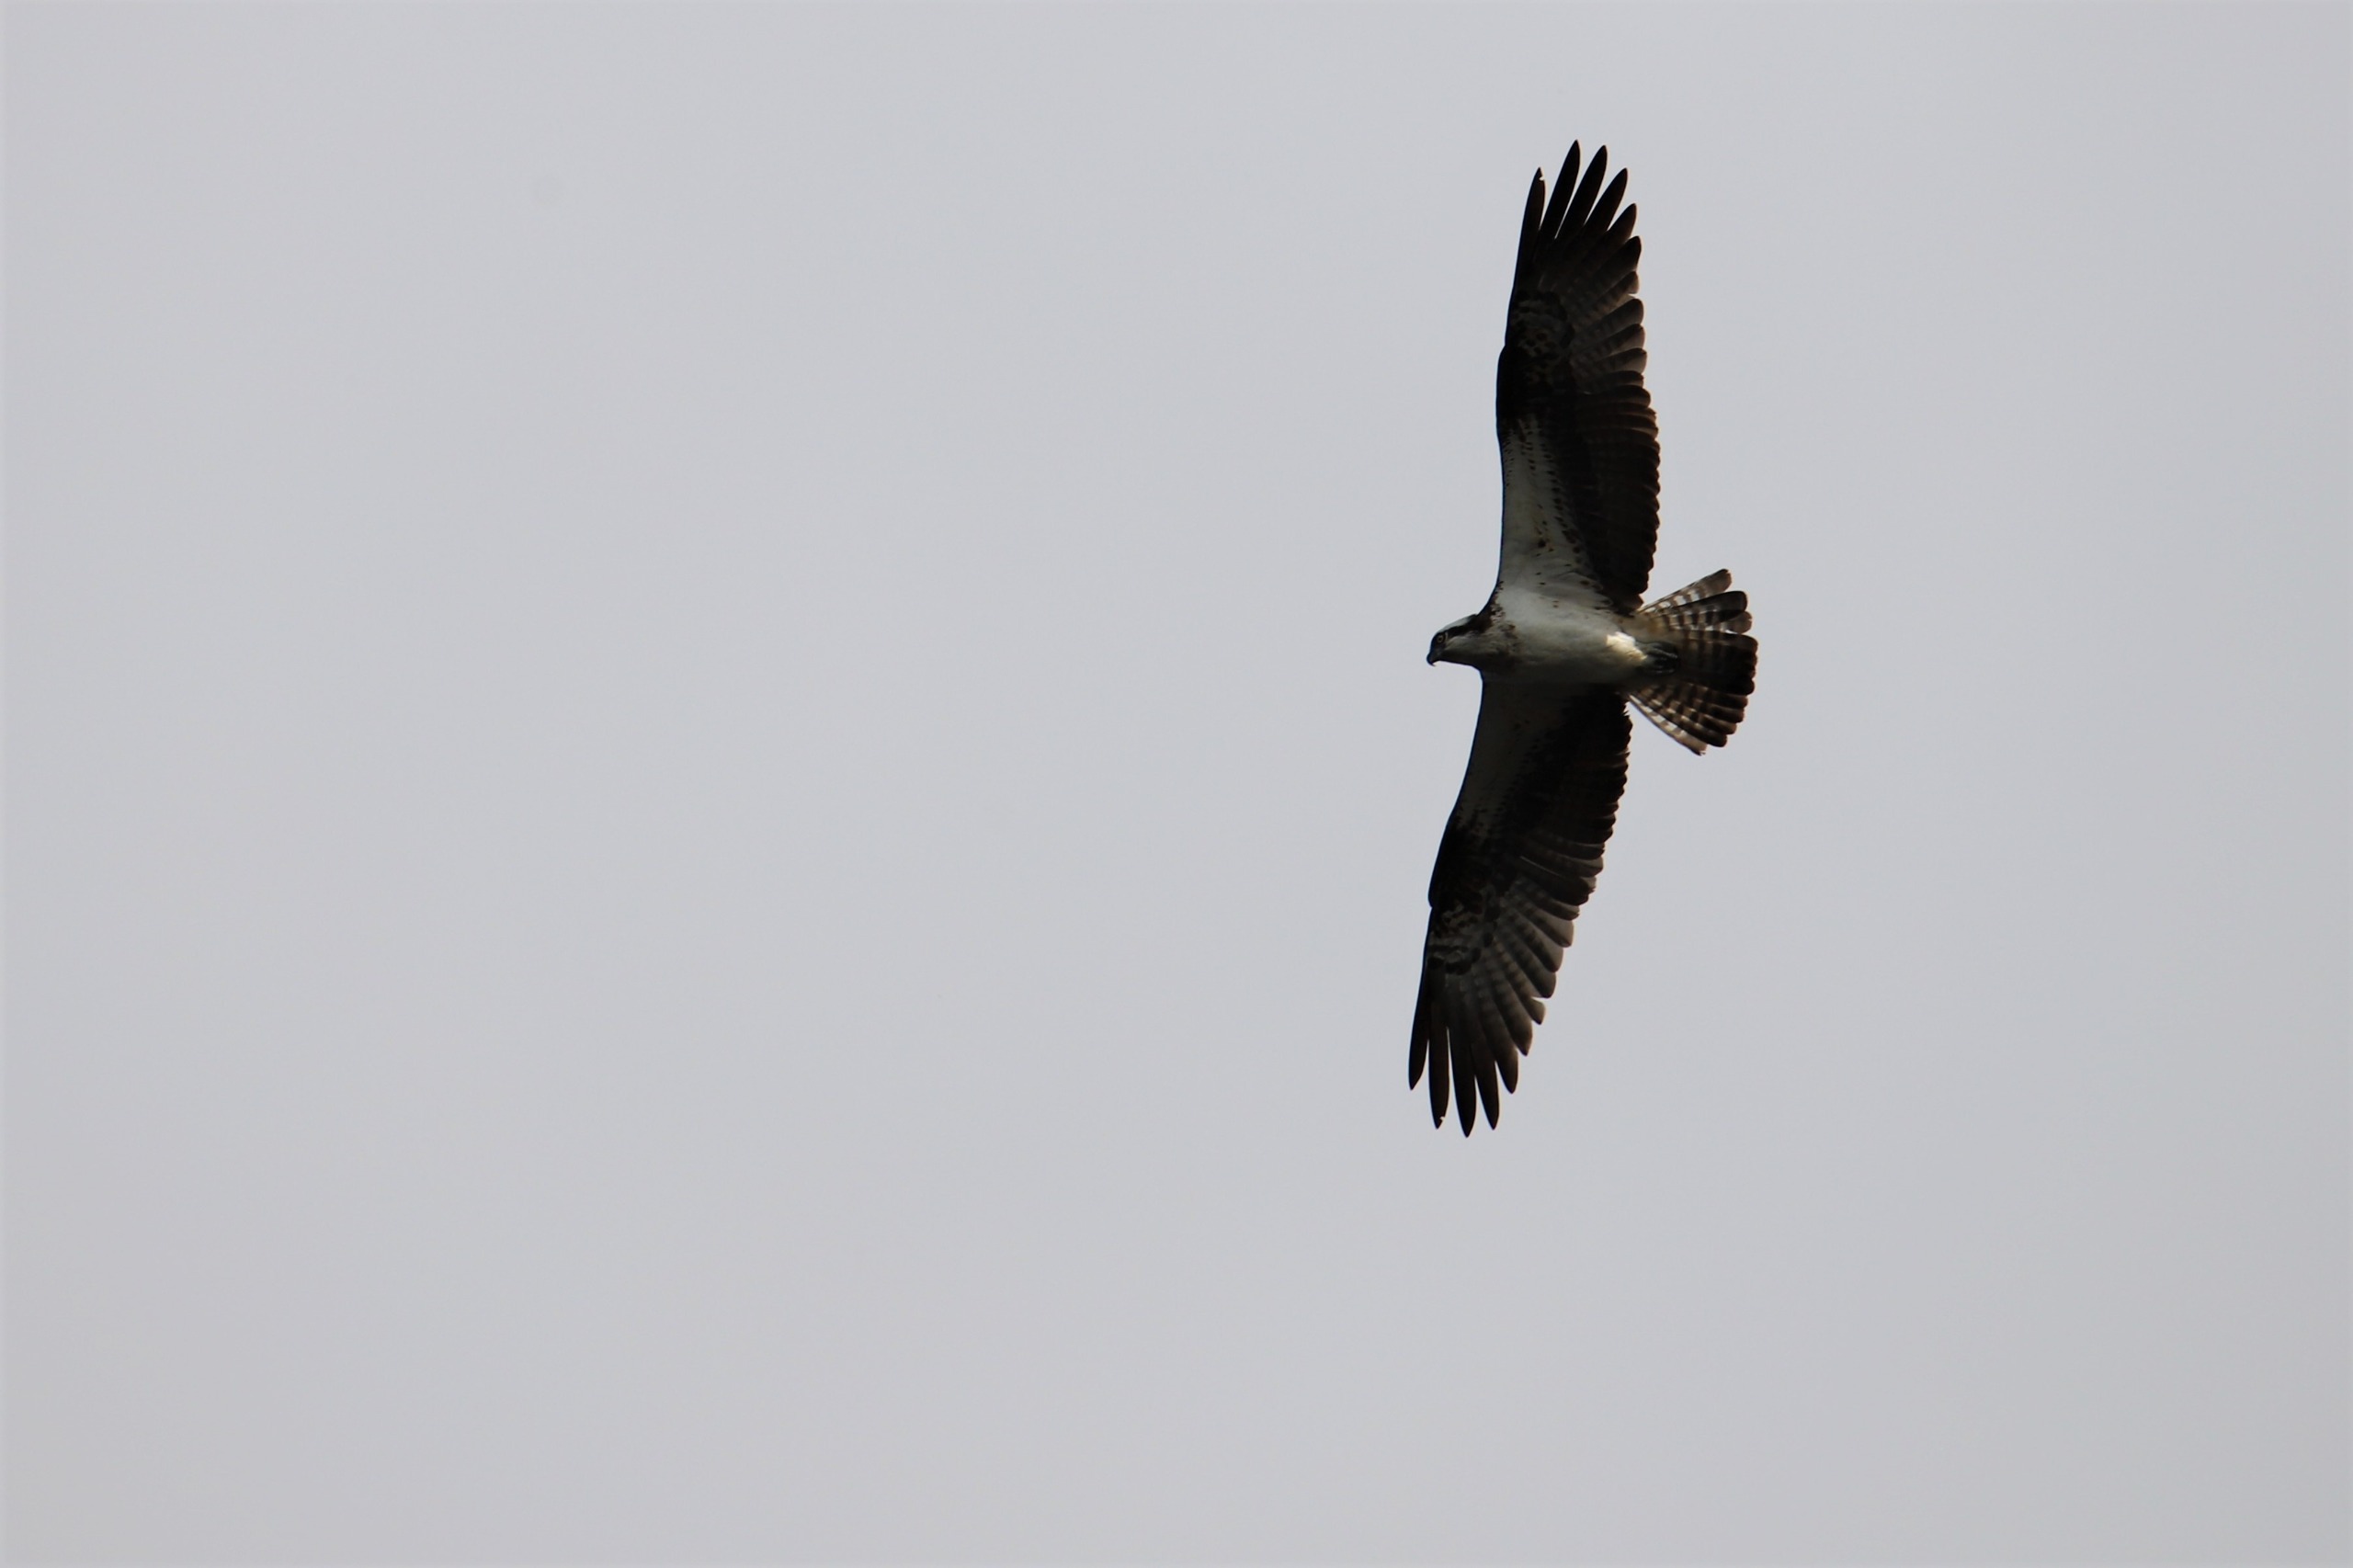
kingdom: Animalia
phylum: Chordata
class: Aves
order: Accipitriformes
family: Pandionidae
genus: Pandion
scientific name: Pandion haliaetus
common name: Fiskeørn
